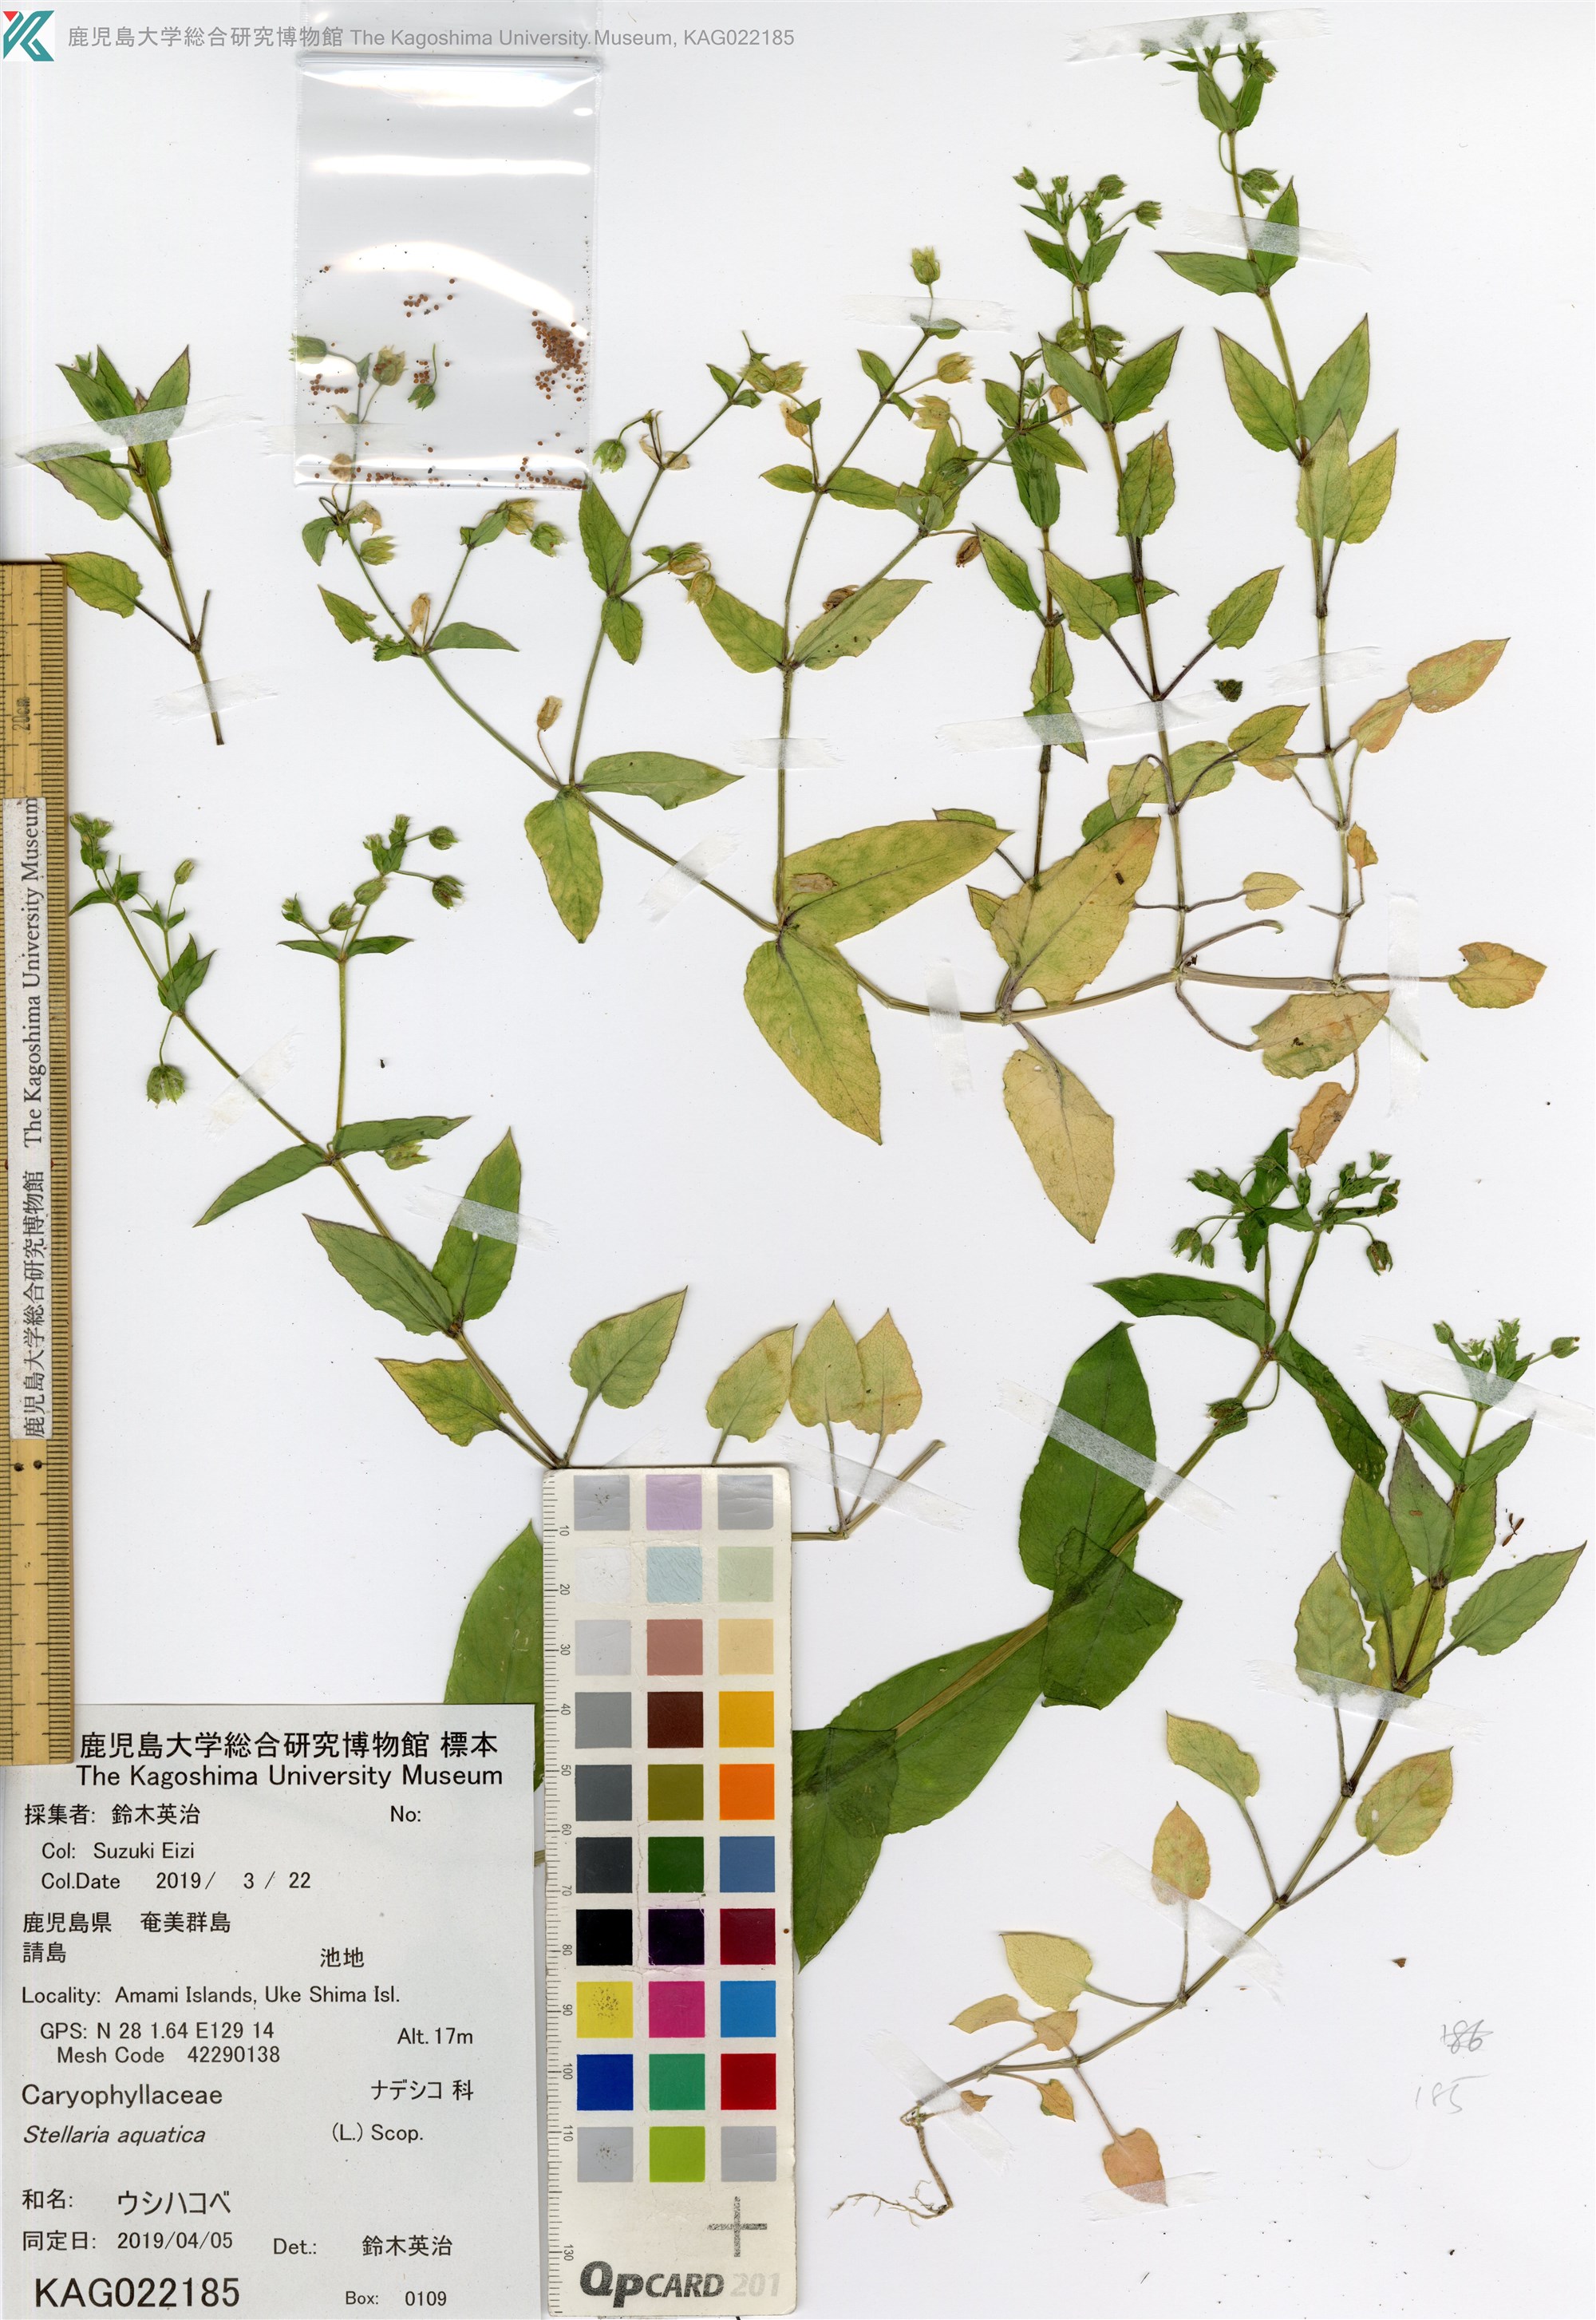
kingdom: Plantae
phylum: Tracheophyta
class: Magnoliopsida
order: Caryophyllales
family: Caryophyllaceae
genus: Stellaria
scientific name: Stellaria aquatica
